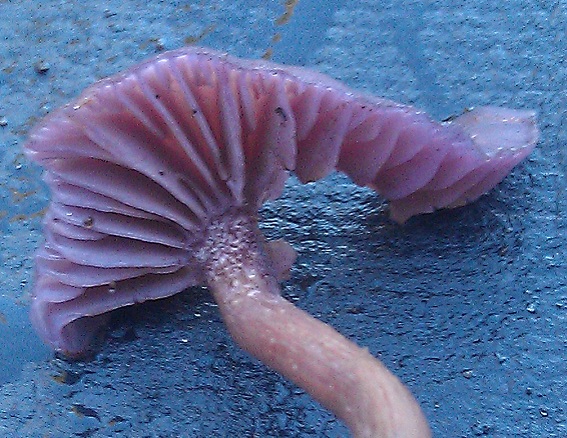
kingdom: Fungi
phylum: Basidiomycota
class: Agaricomycetes
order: Agaricales
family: Hydnangiaceae
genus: Laccaria
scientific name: Laccaria amethystina
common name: violet ametysthat
